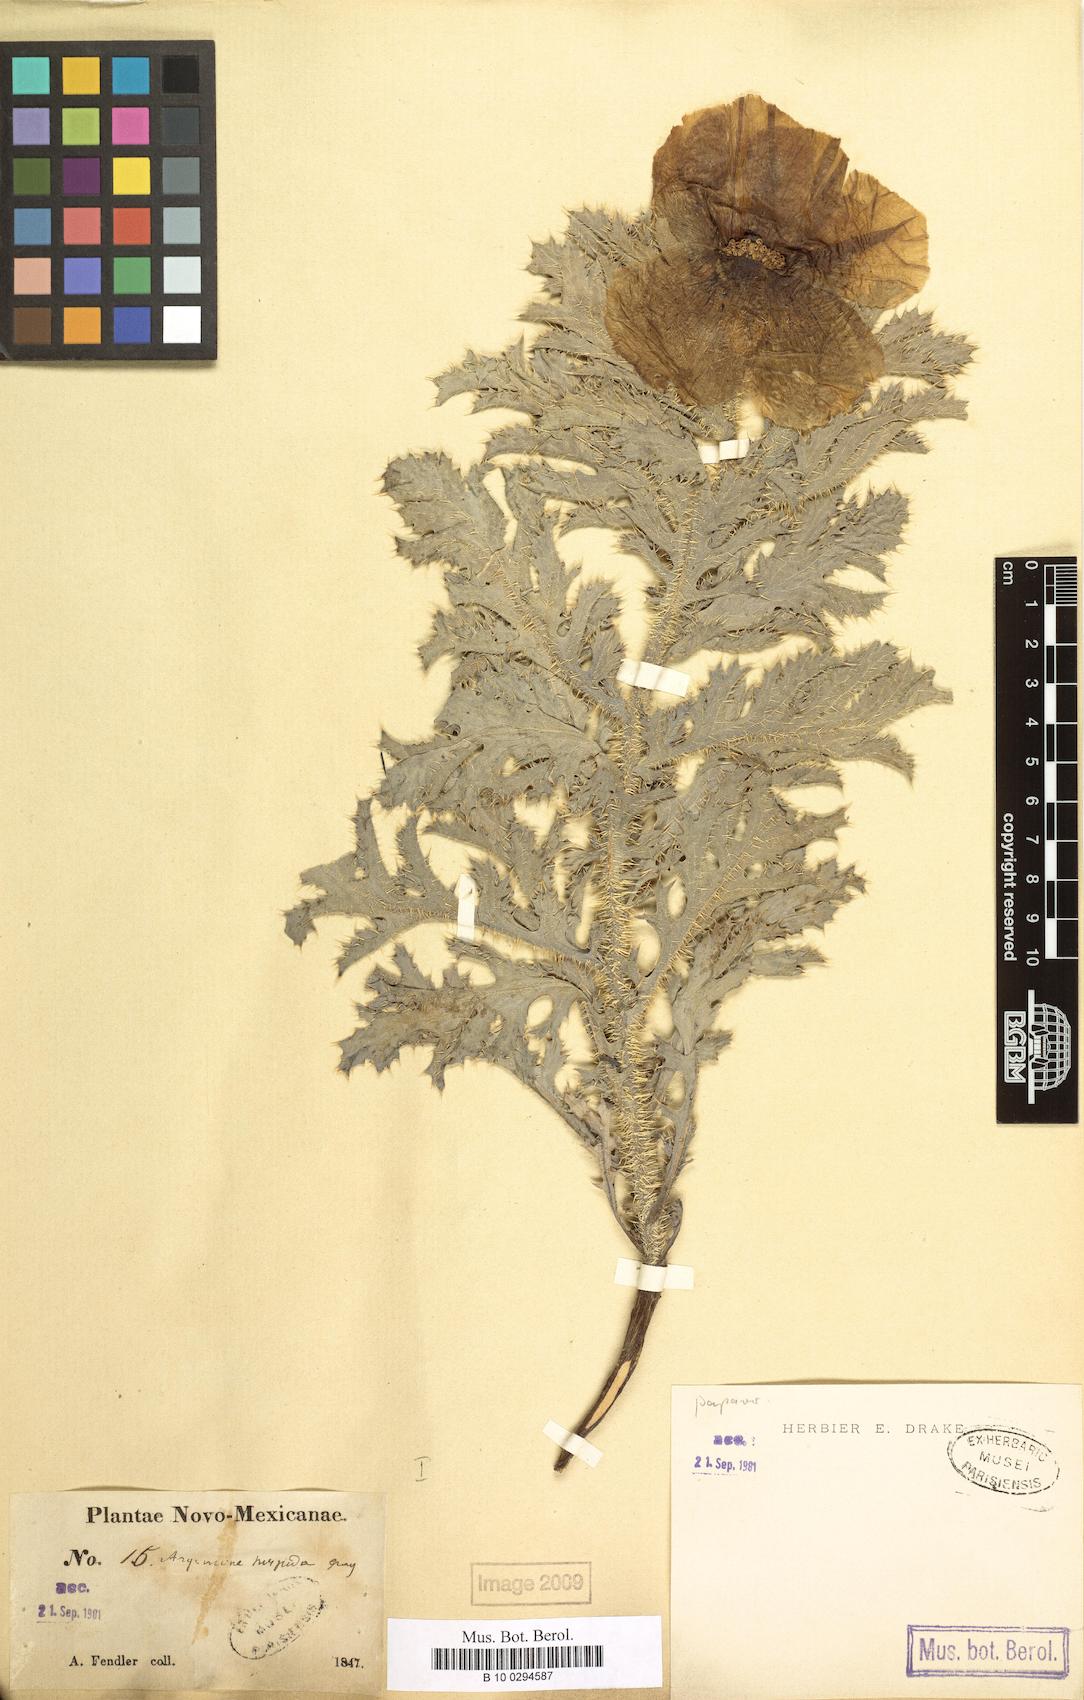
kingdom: Plantae
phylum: Tracheophyta
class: Magnoliopsida
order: Ranunculales
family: Papaveraceae
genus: Argemone
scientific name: Argemone hispida
